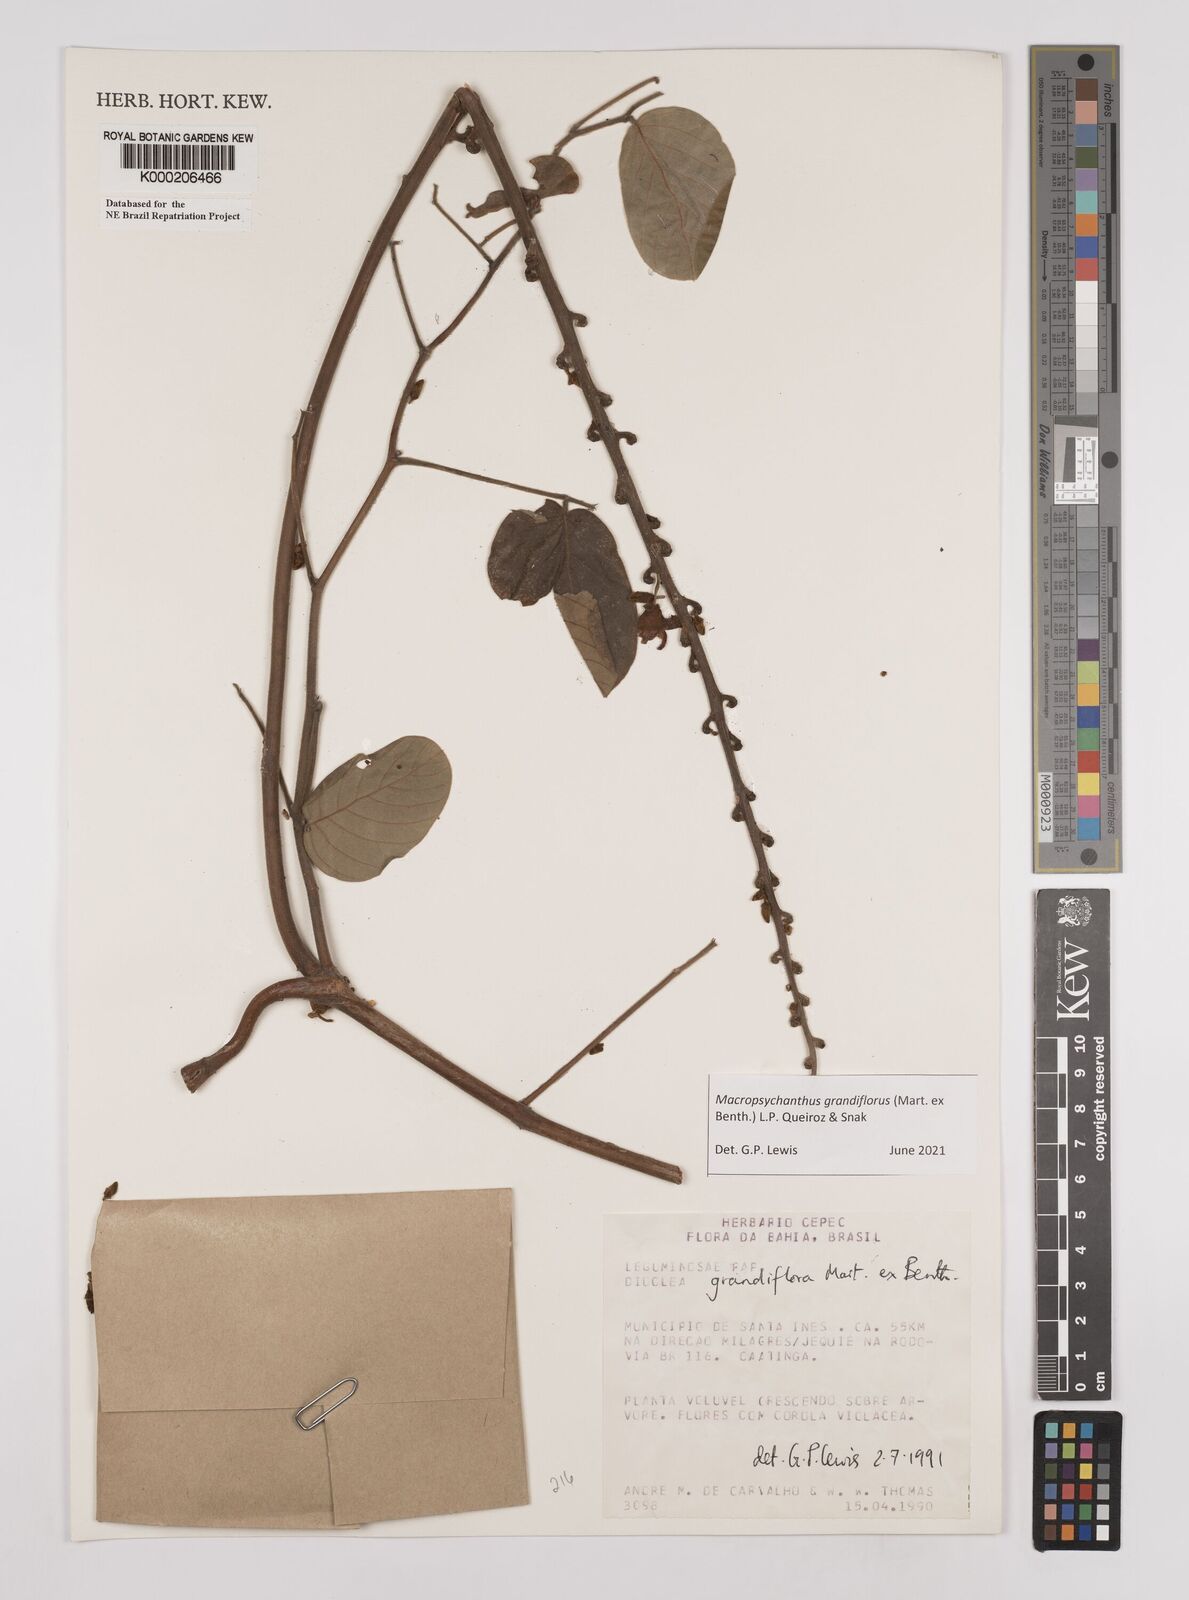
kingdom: Plantae
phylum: Tracheophyta
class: Magnoliopsida
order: Fabales
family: Fabaceae
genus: Macropsychanthus
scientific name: Macropsychanthus grandiflorus
